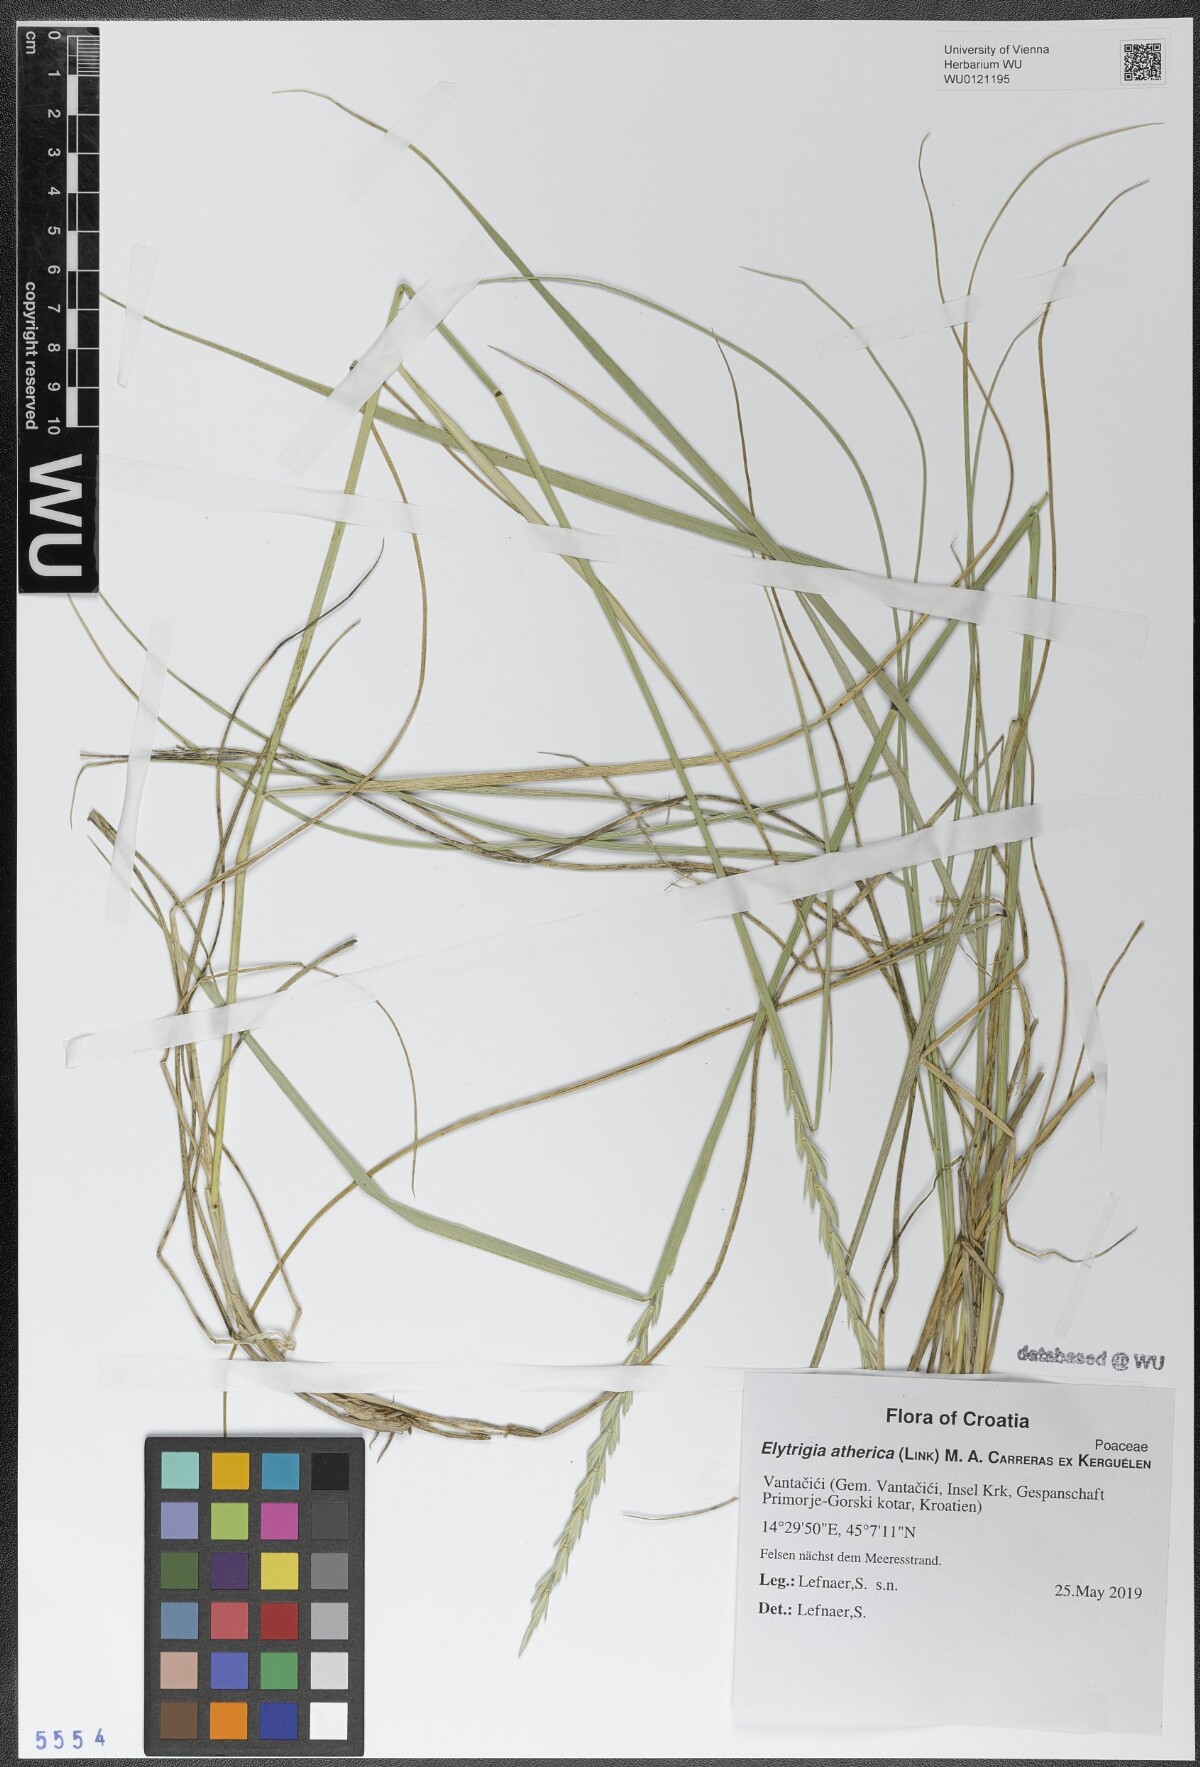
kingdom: Plantae
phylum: Tracheophyta
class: Liliopsida
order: Poales
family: Poaceae
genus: Elymus
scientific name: Elymus athericus
